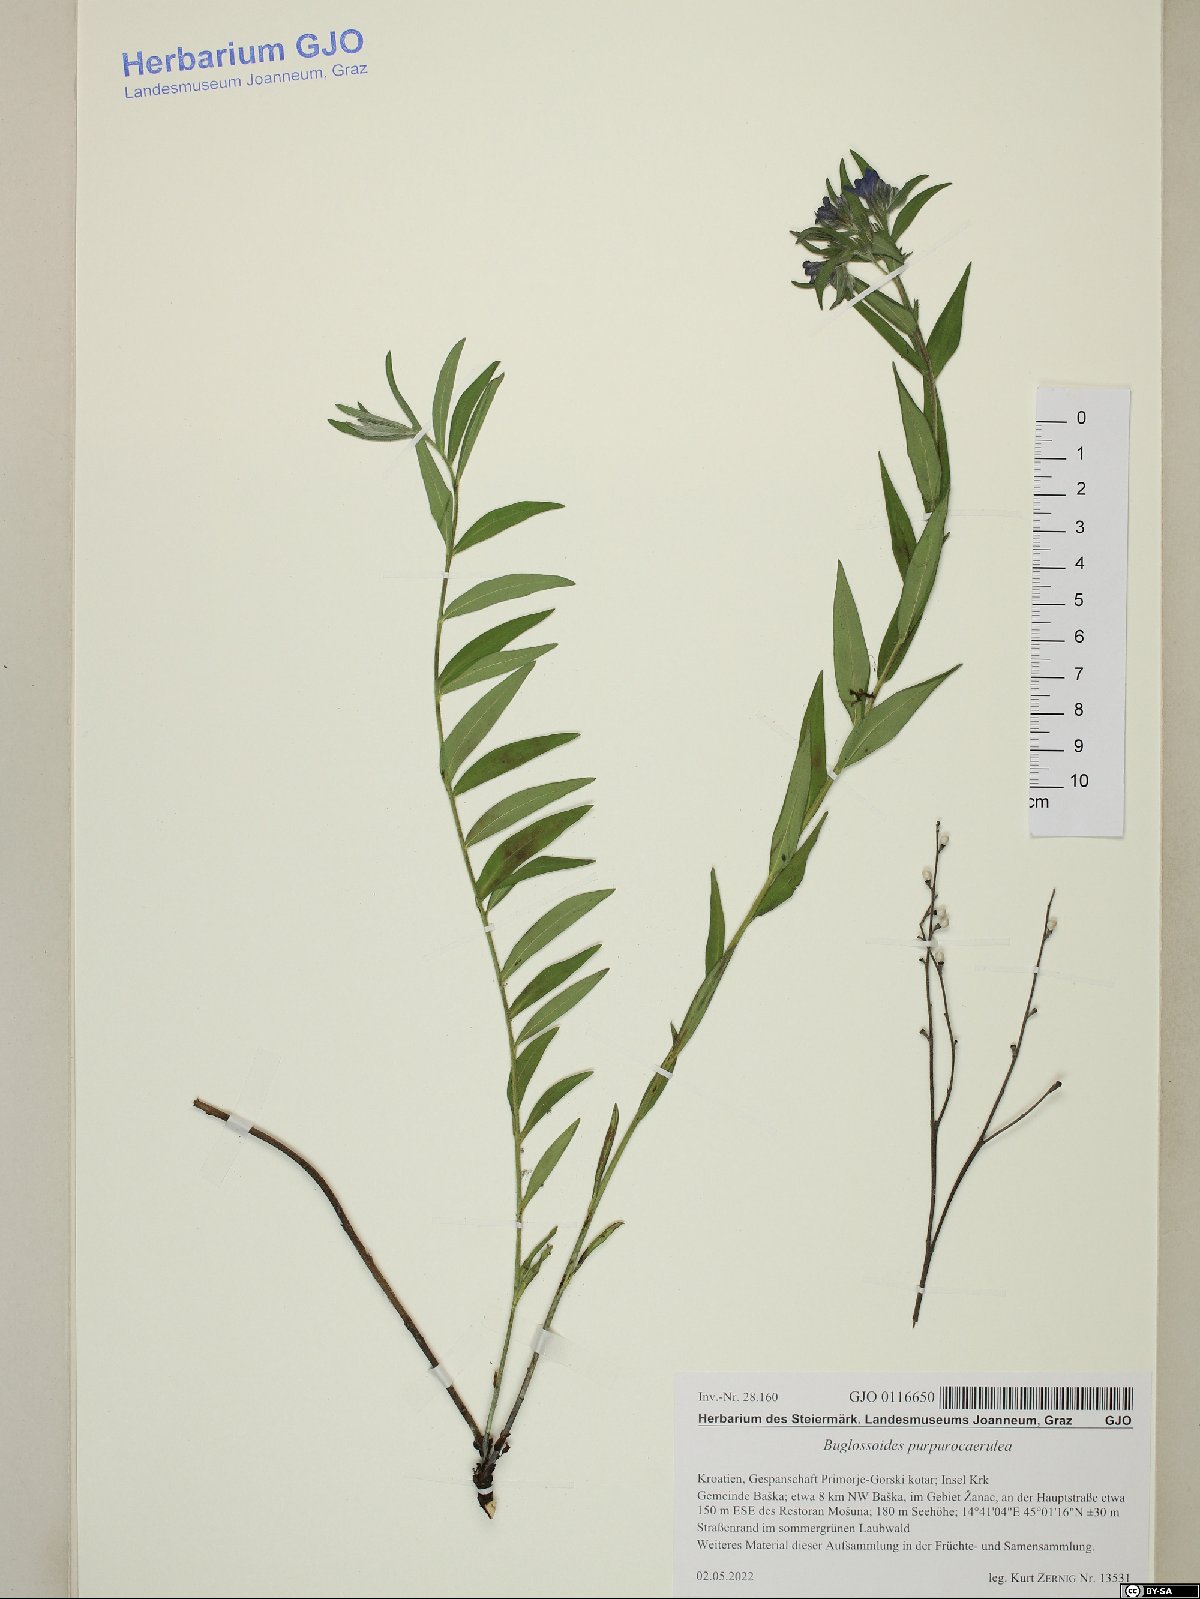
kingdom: Plantae
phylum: Tracheophyta
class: Magnoliopsida
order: Boraginales
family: Boraginaceae
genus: Aegonychon
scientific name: Aegonychon purpurocaeruleum
